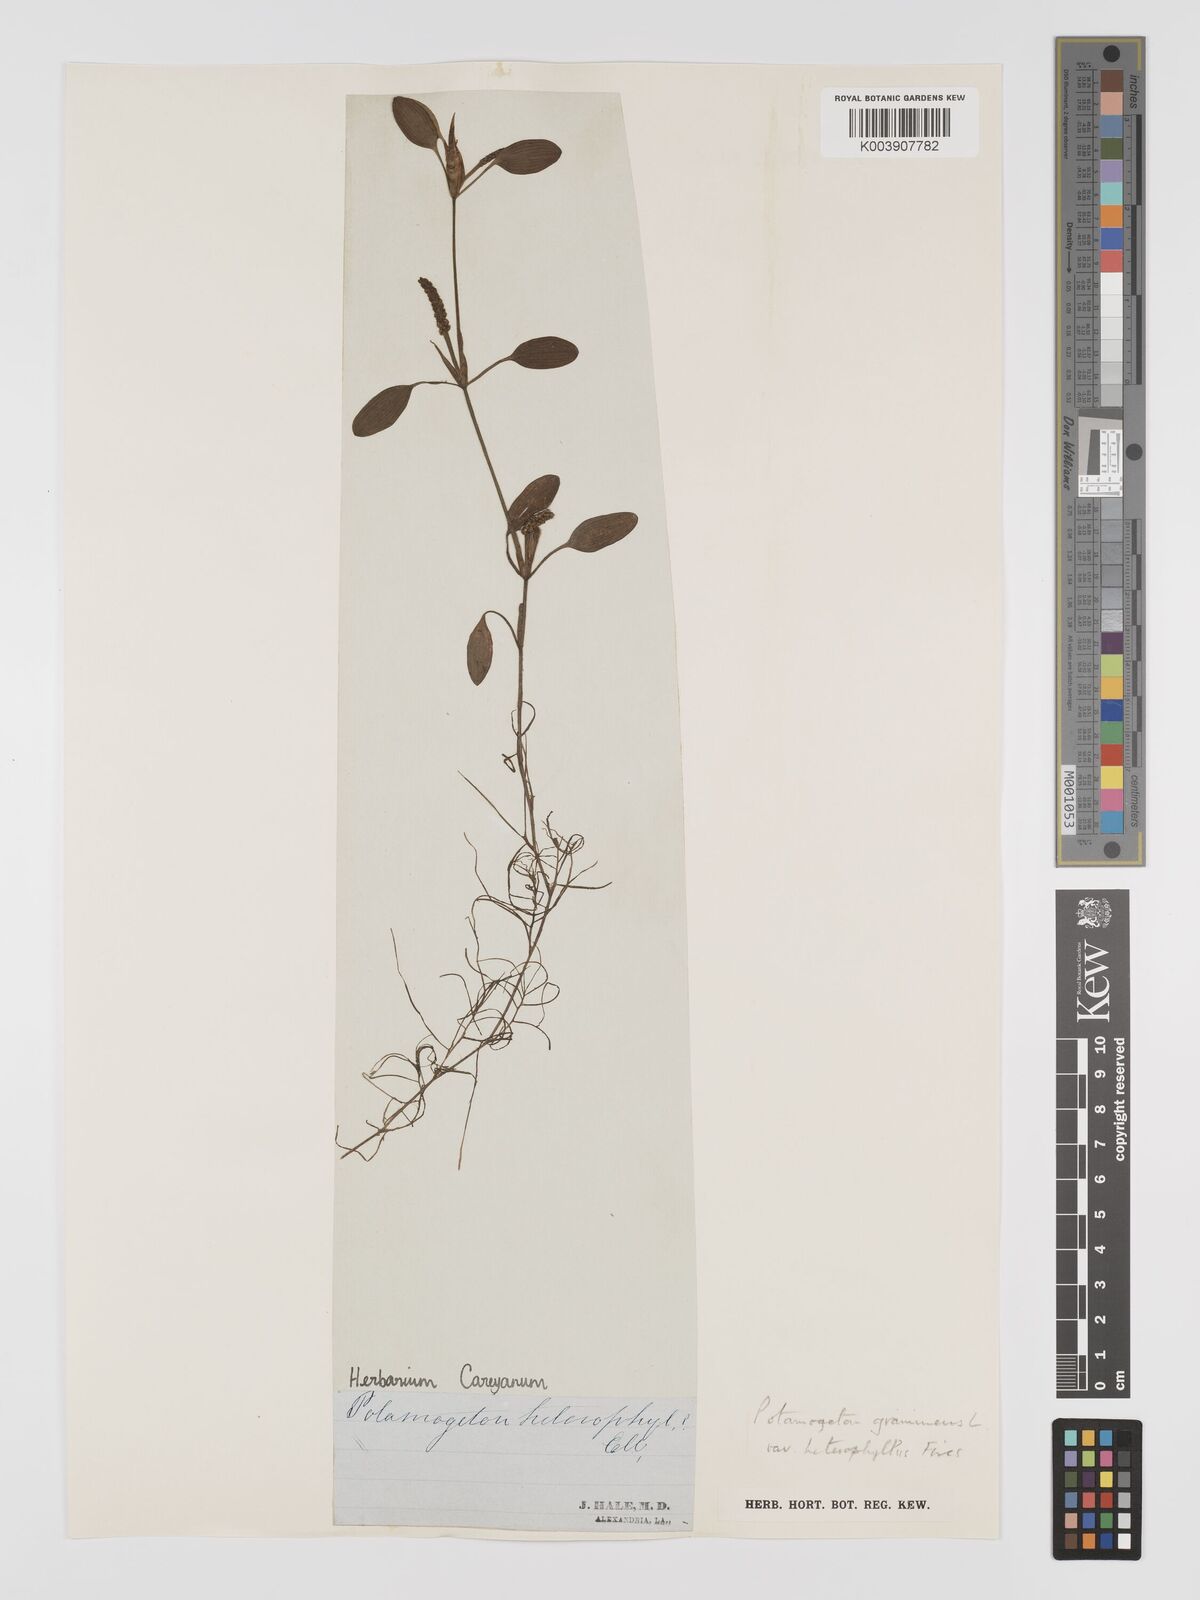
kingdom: Plantae
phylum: Tracheophyta
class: Liliopsida
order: Alismatales
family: Potamogetonaceae
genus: Potamogeton
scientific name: Potamogeton gramineus
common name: Various-leaved pondweed
